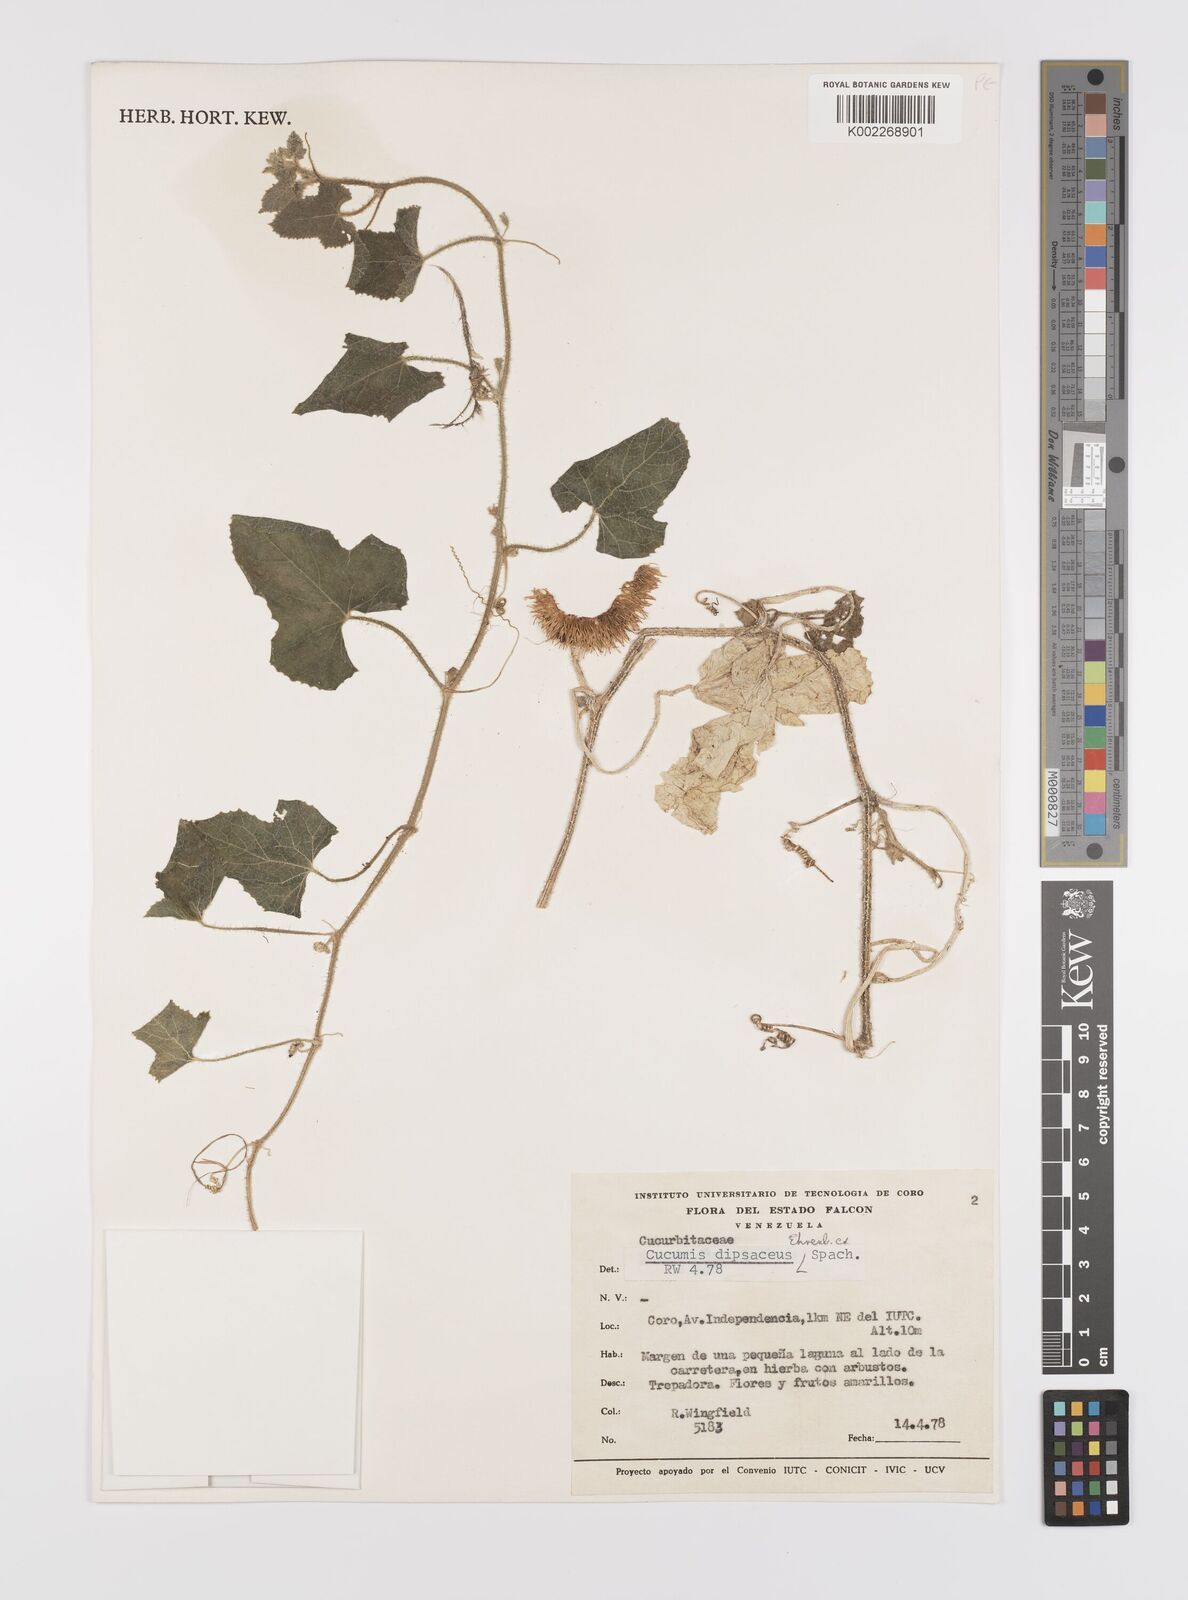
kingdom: Plantae
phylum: Tracheophyta
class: Magnoliopsida
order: Cucurbitales
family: Cucurbitaceae
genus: Cucumis
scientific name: Cucumis
